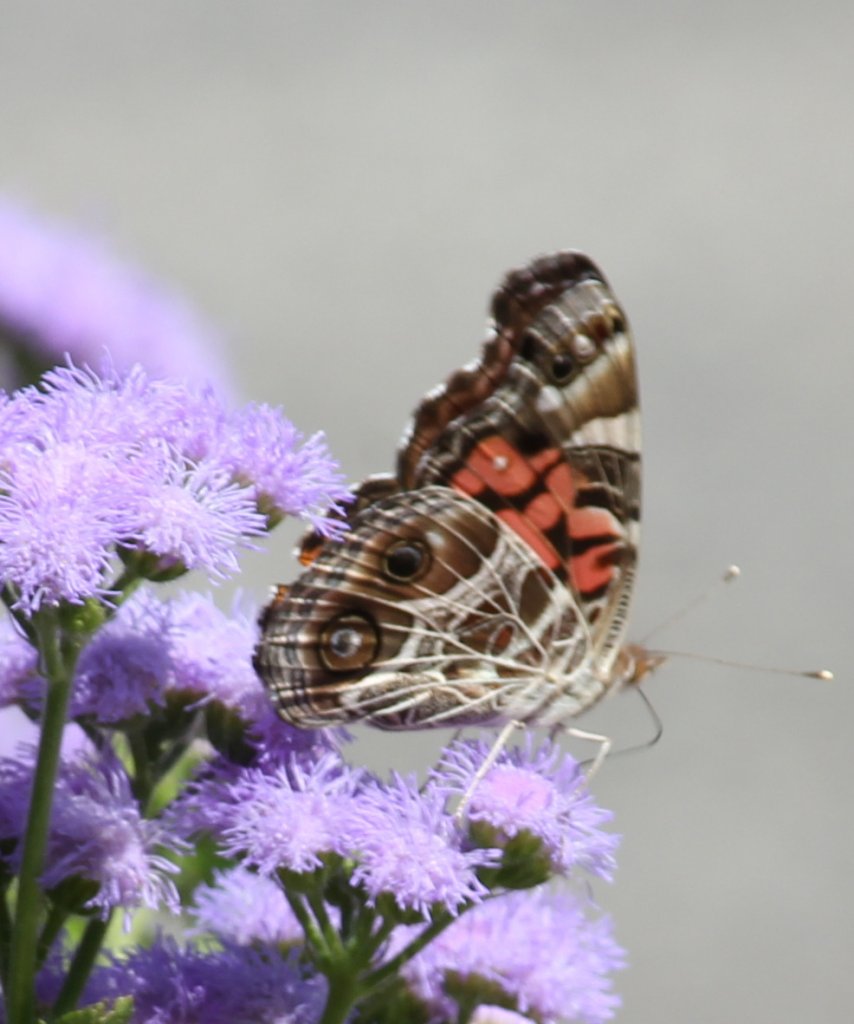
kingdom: Animalia
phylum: Arthropoda
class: Insecta
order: Lepidoptera
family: Nymphalidae
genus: Vanessa
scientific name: Vanessa virginiensis
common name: American Lady
